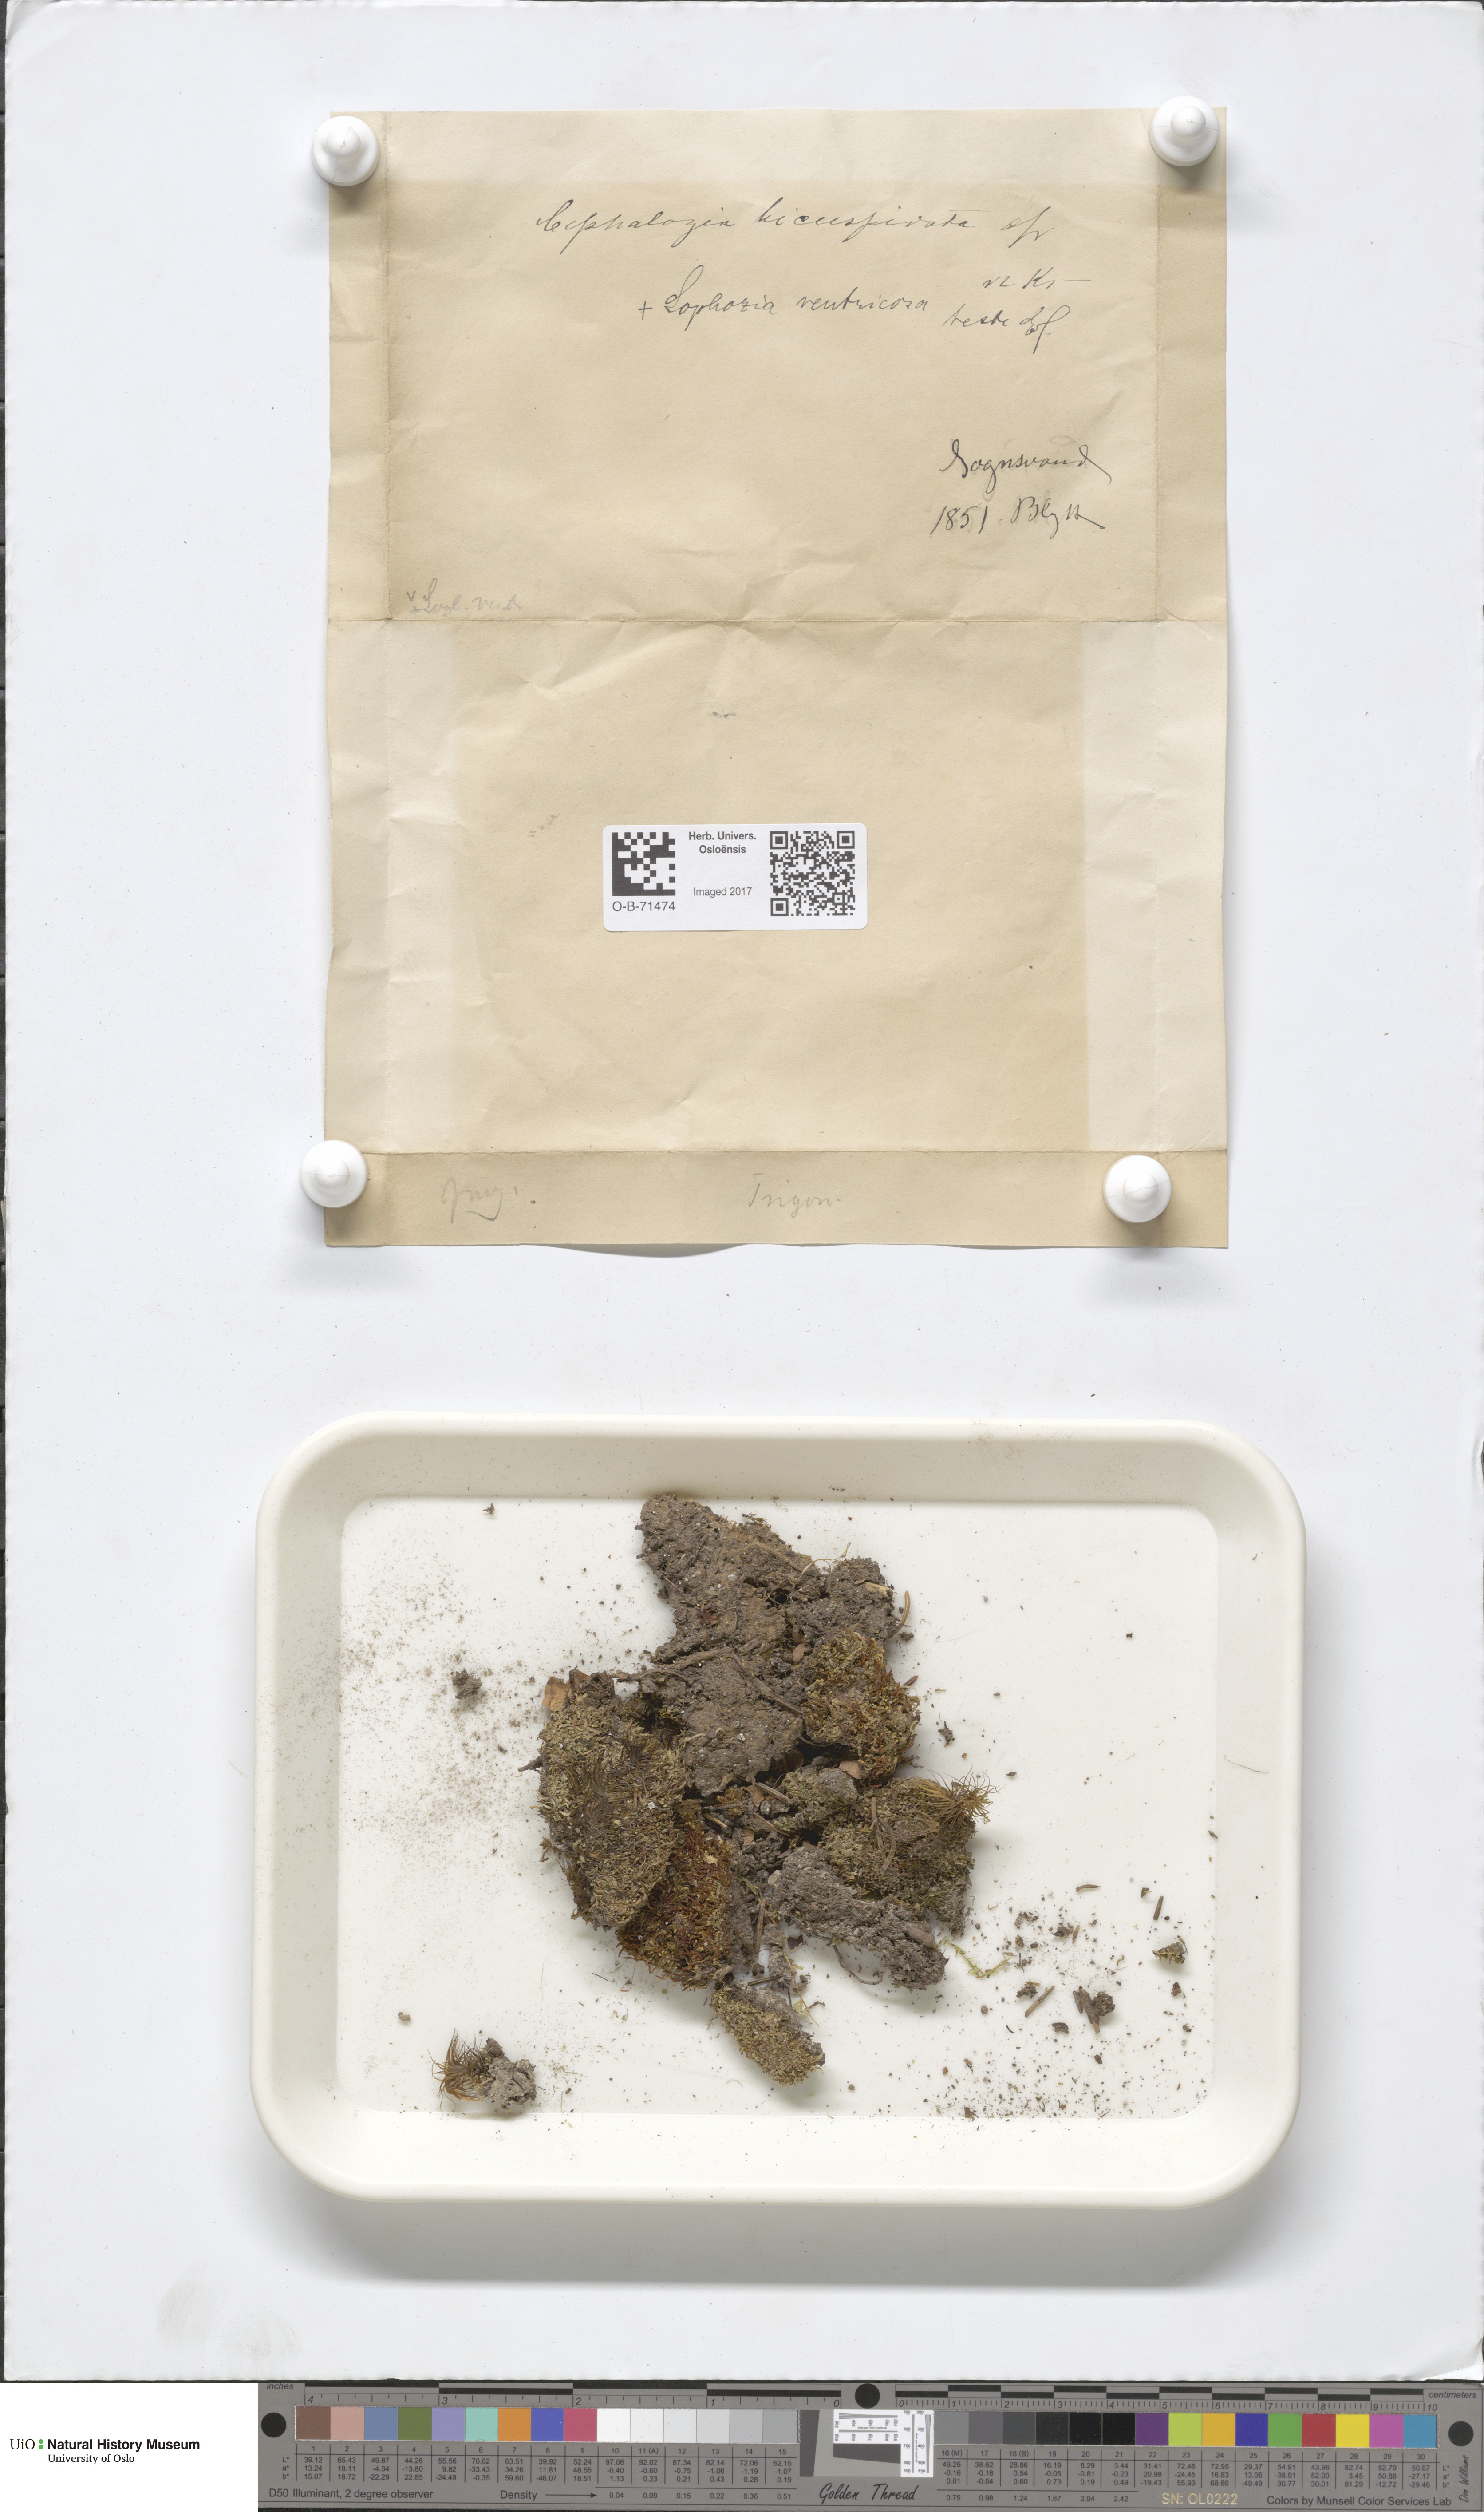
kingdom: Plantae
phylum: Marchantiophyta
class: Jungermanniopsida
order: Jungermanniales
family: Cephaloziaceae
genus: Cephalozia
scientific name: Cephalozia bicuspidata
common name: Two-horned pincerwort
